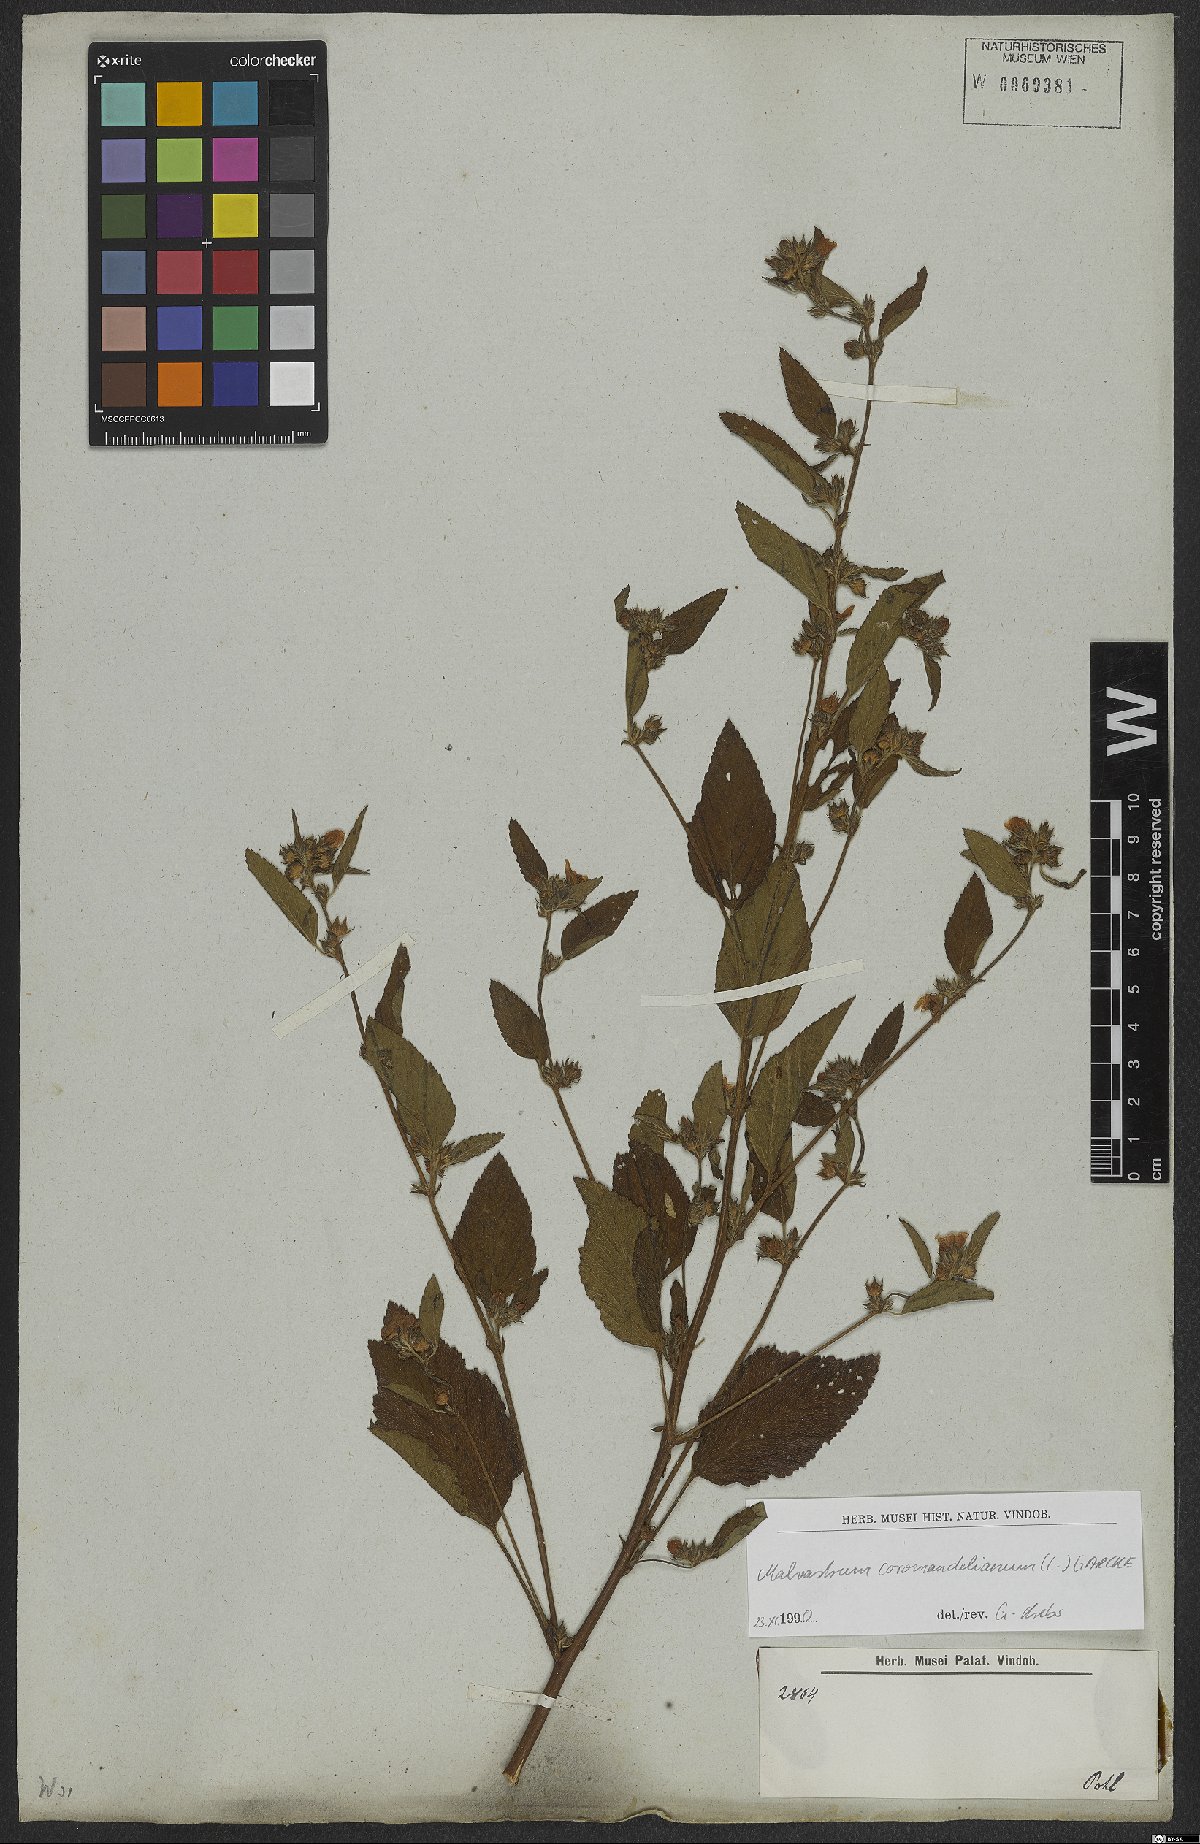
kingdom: Plantae
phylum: Tracheophyta
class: Magnoliopsida
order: Malvales
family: Malvaceae
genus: Malvastrum
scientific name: Malvastrum coromandelianum
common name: Threelobe false mallow
